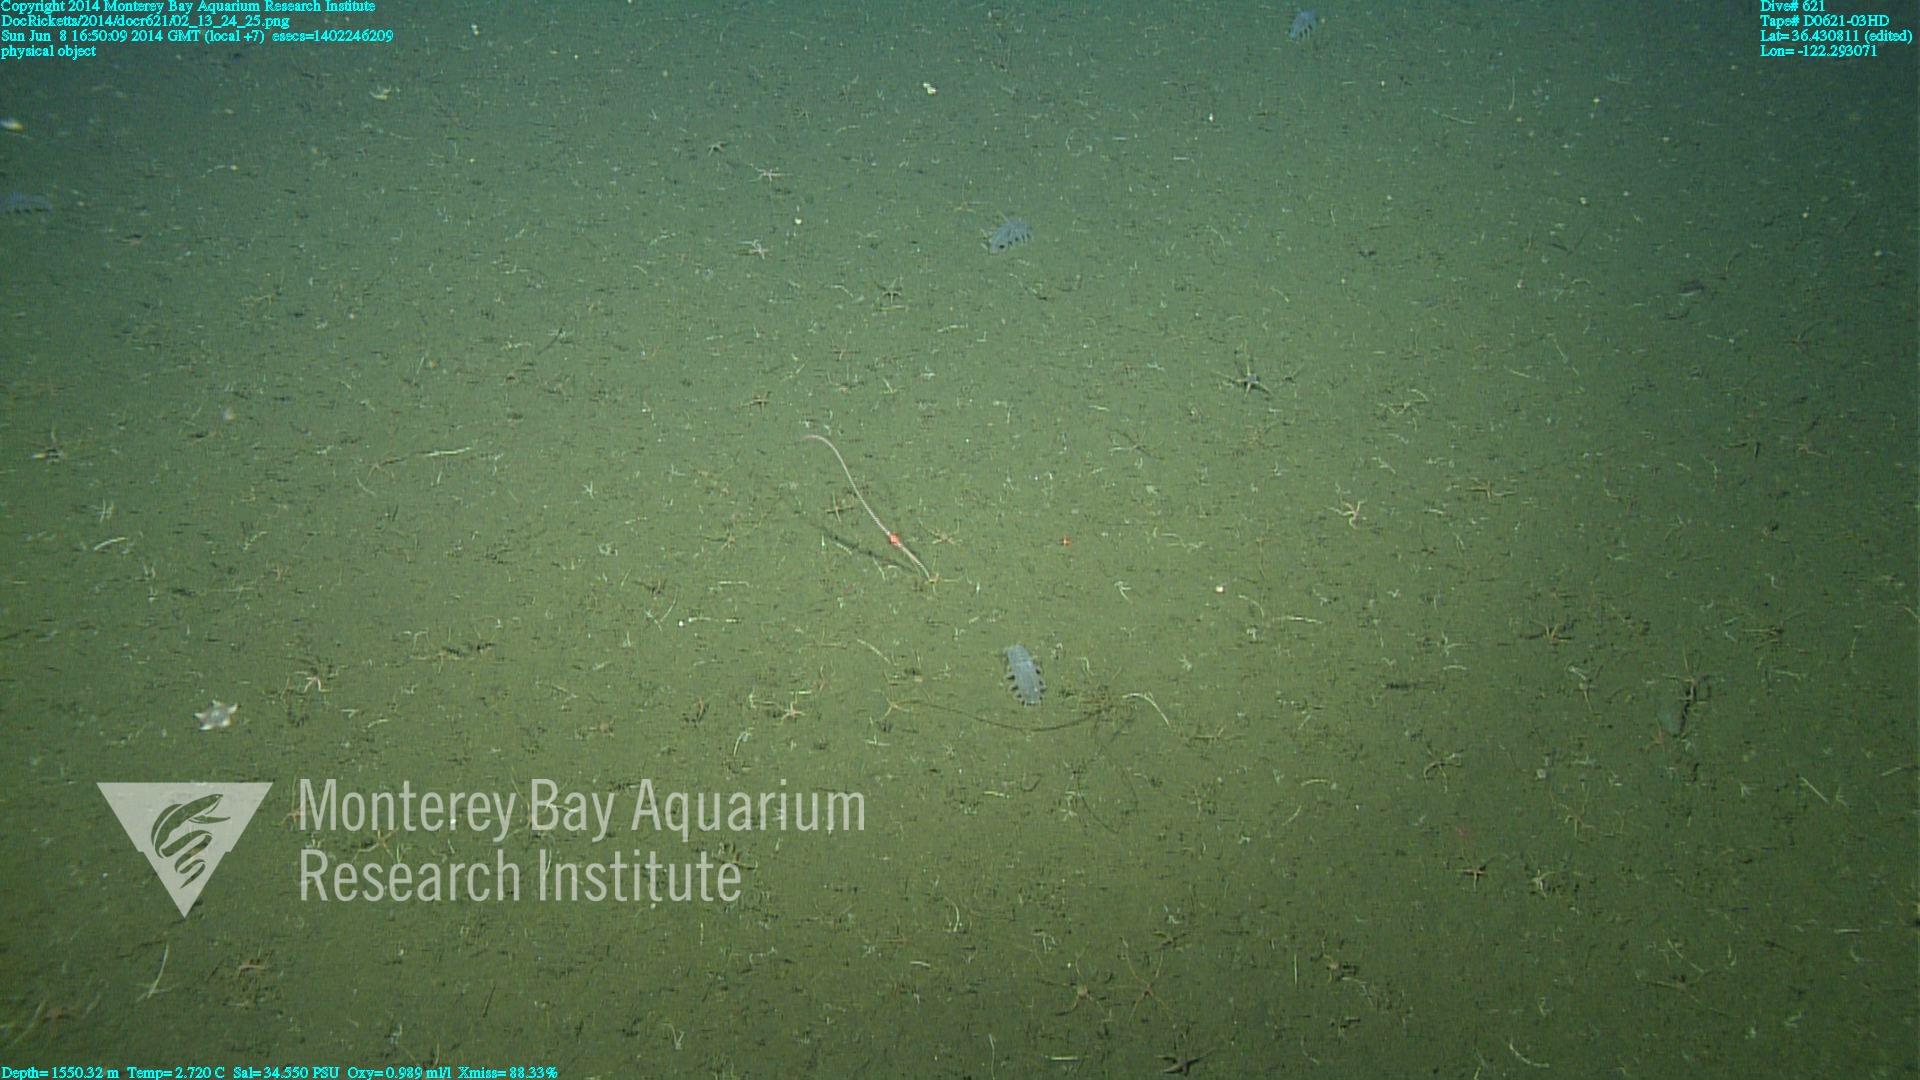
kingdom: Animalia
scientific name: Animalia
